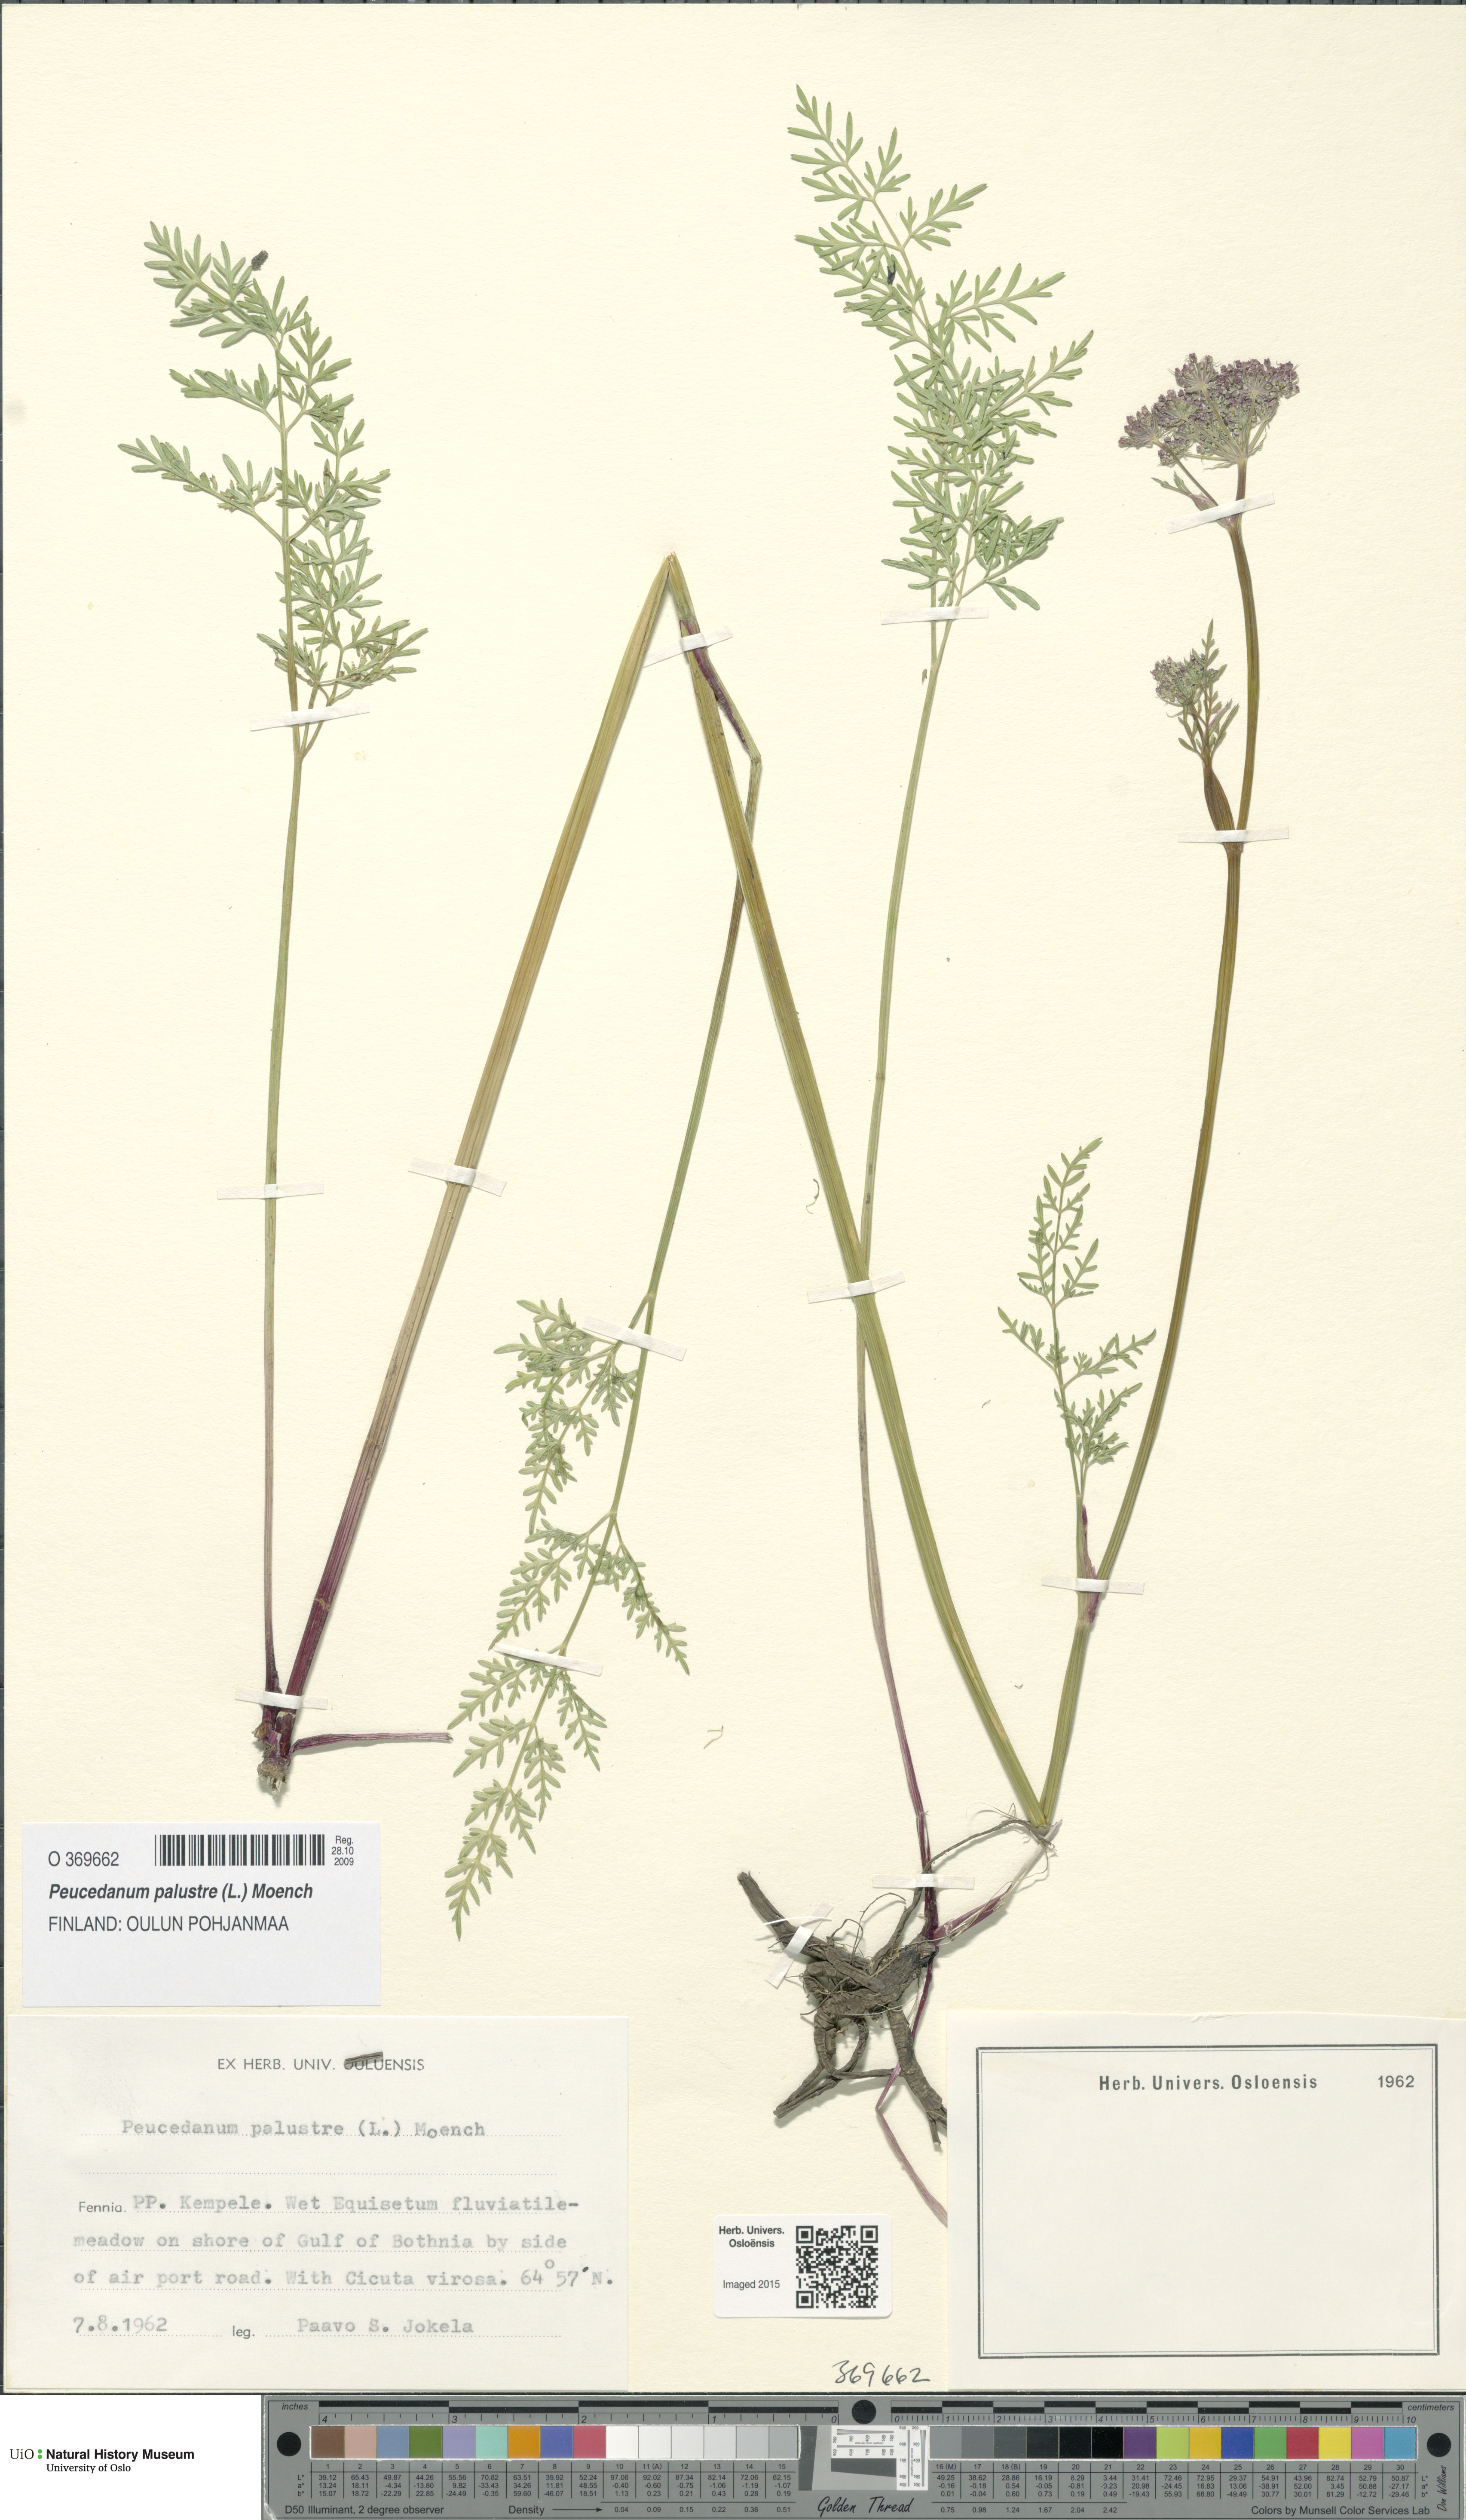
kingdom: Plantae
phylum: Tracheophyta
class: Magnoliopsida
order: Apiales
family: Apiaceae
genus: Thysselinum
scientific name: Thysselinum palustre
